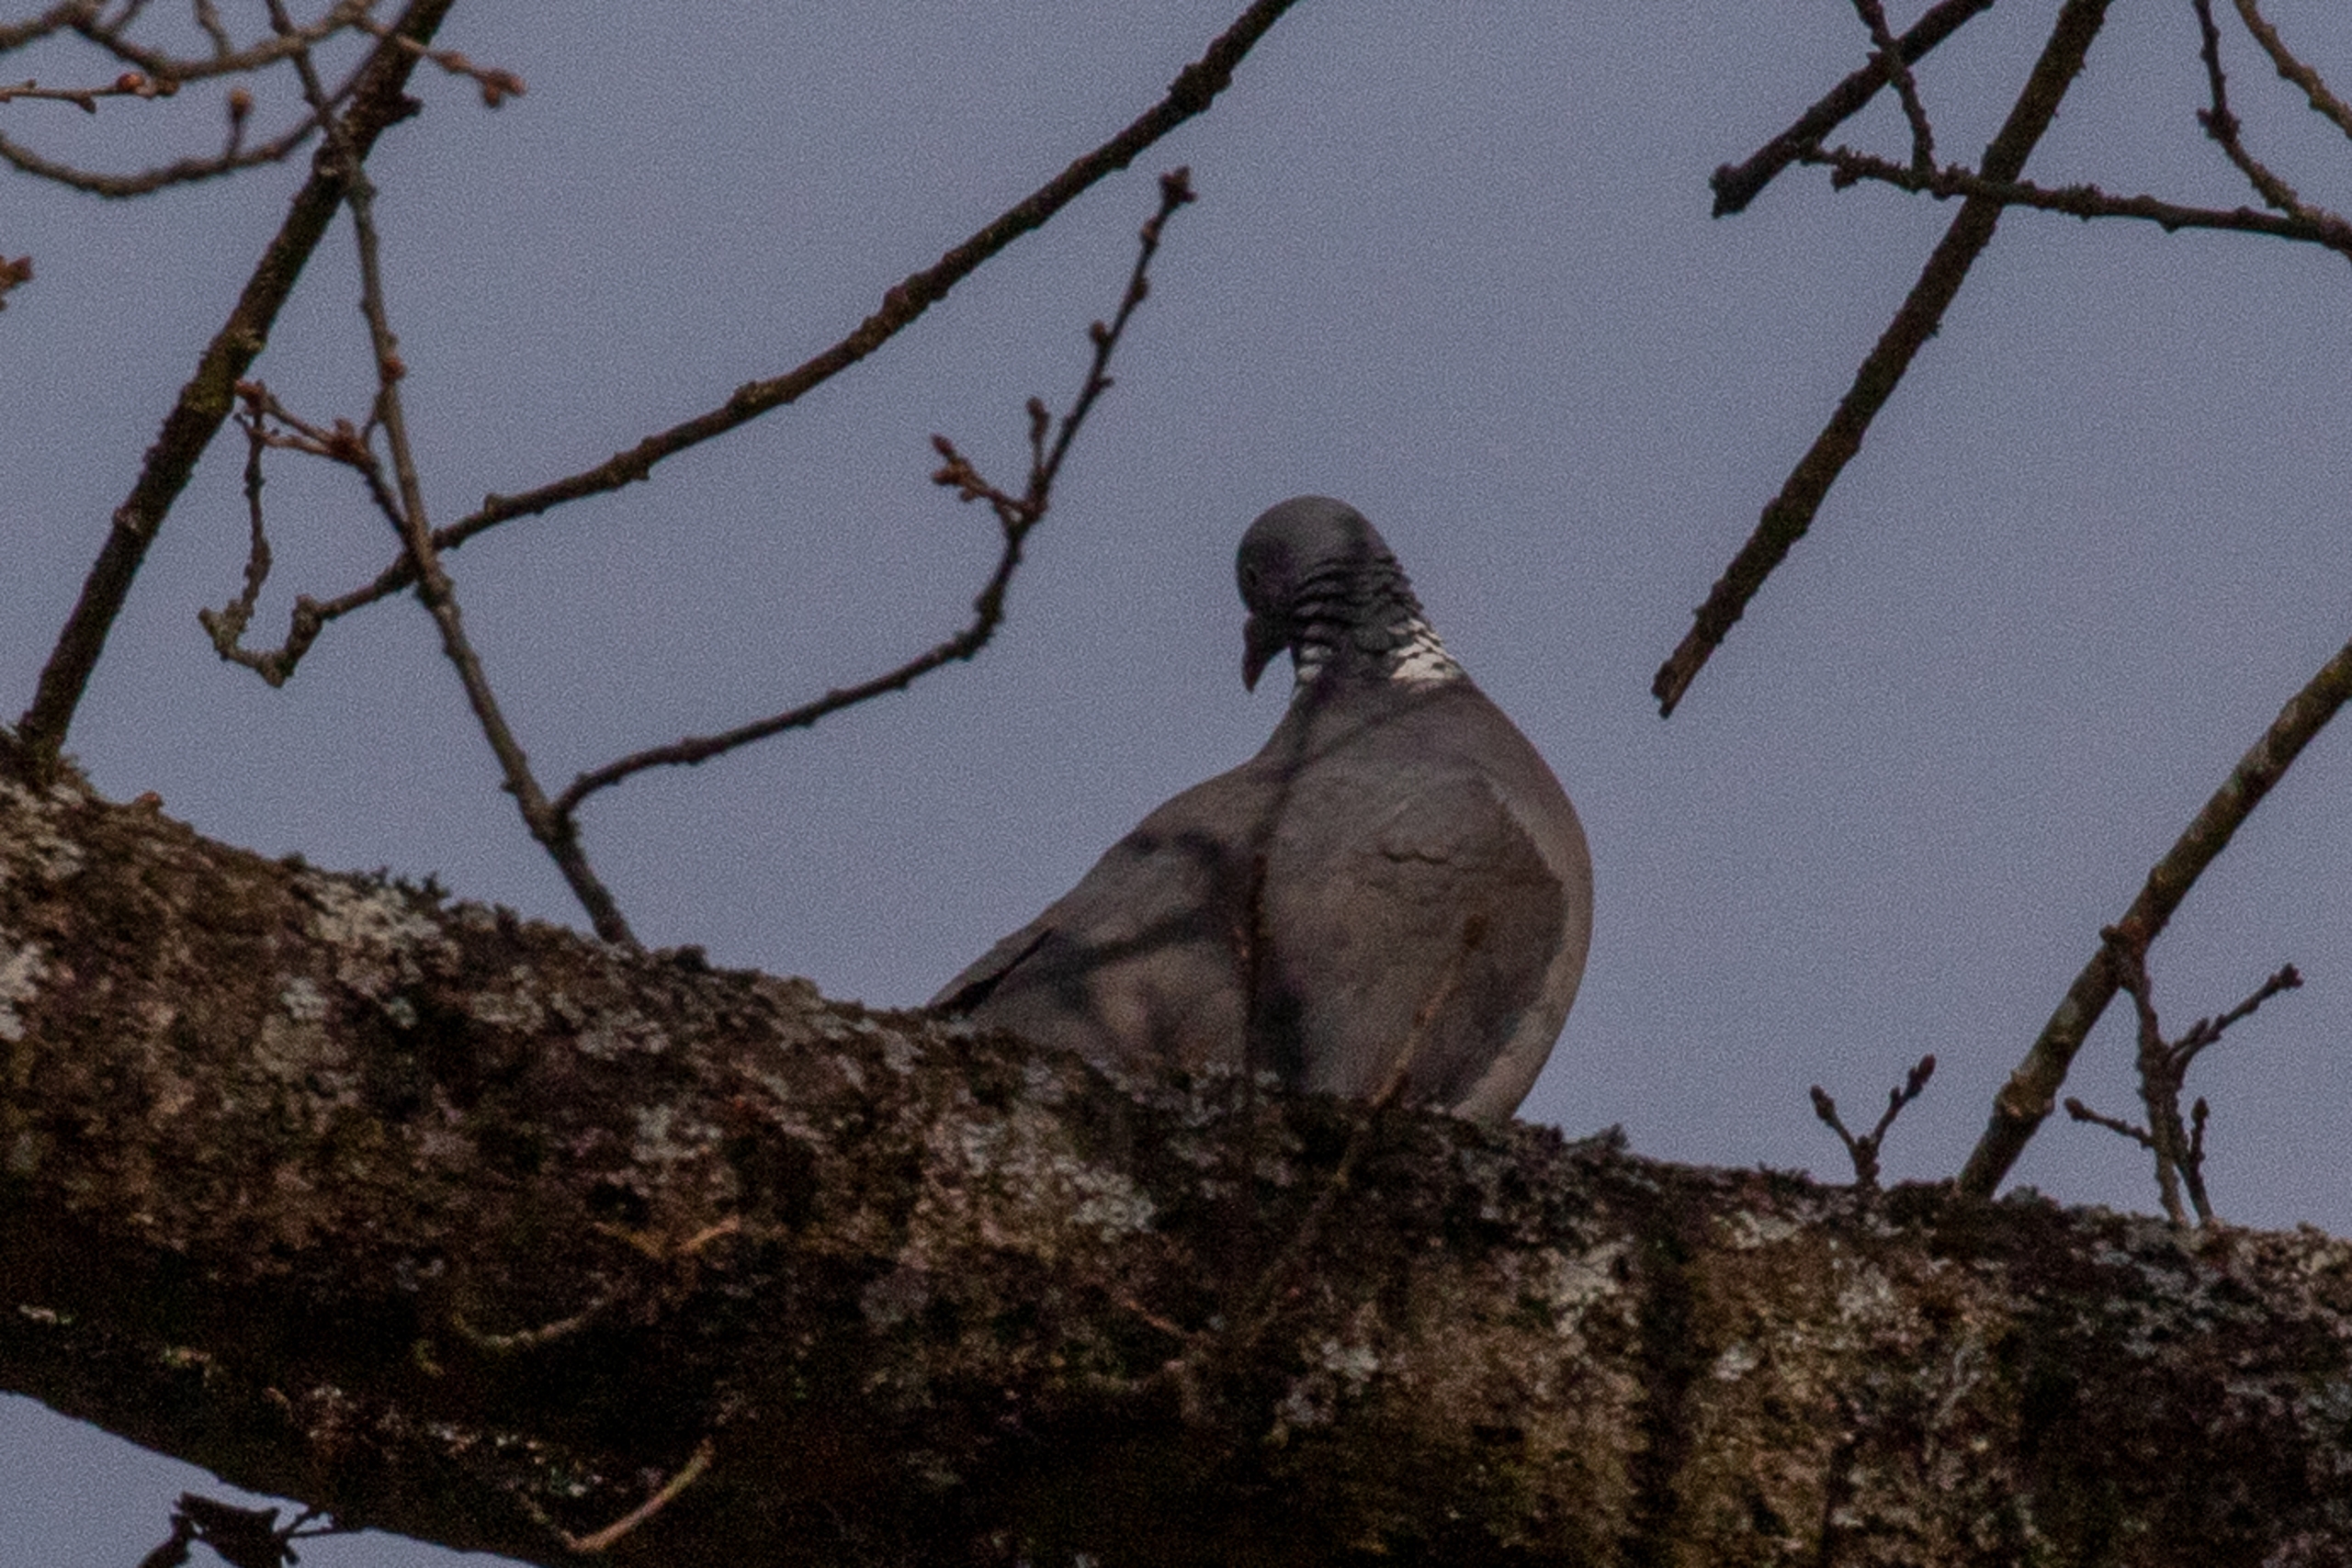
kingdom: Animalia
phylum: Chordata
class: Aves
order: Columbiformes
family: Columbidae
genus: Columba
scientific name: Columba palumbus
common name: Ringdue
